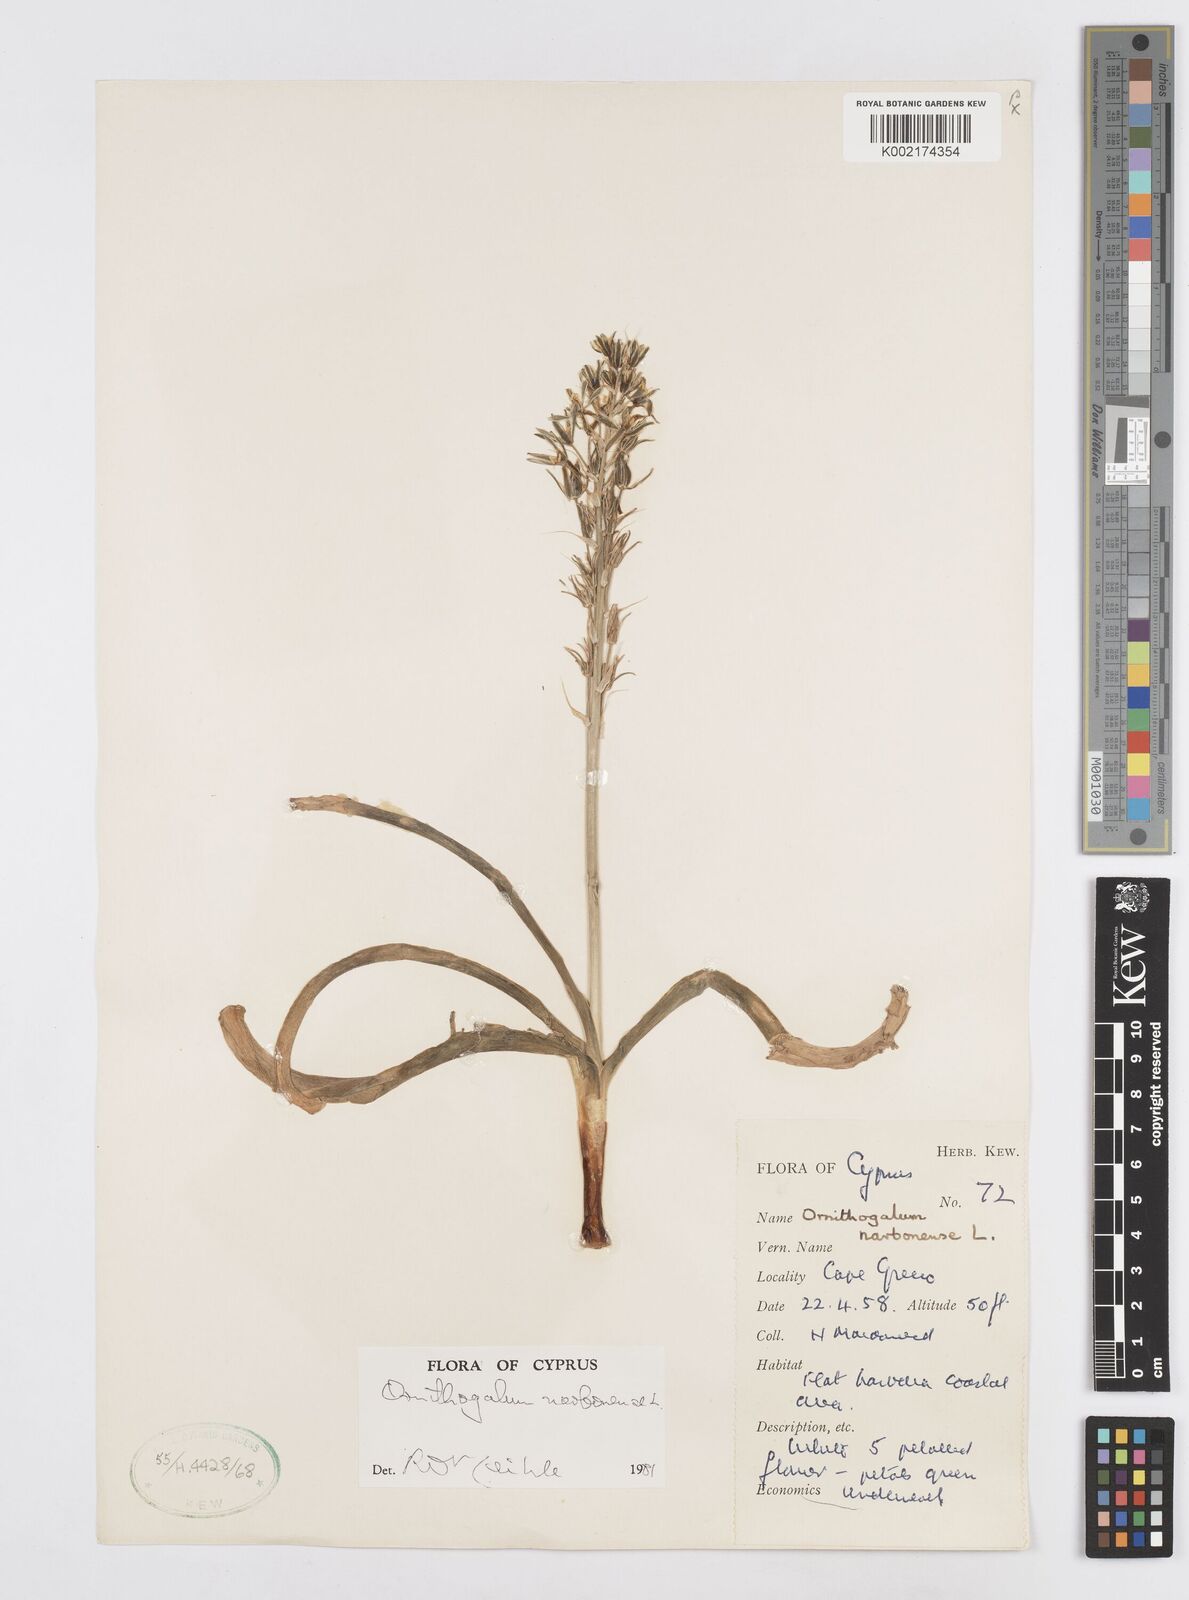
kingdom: Plantae
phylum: Tracheophyta
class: Liliopsida
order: Asparagales
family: Asparagaceae
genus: Ornithogalum
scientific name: Ornithogalum narbonense
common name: Bath-asparagus
